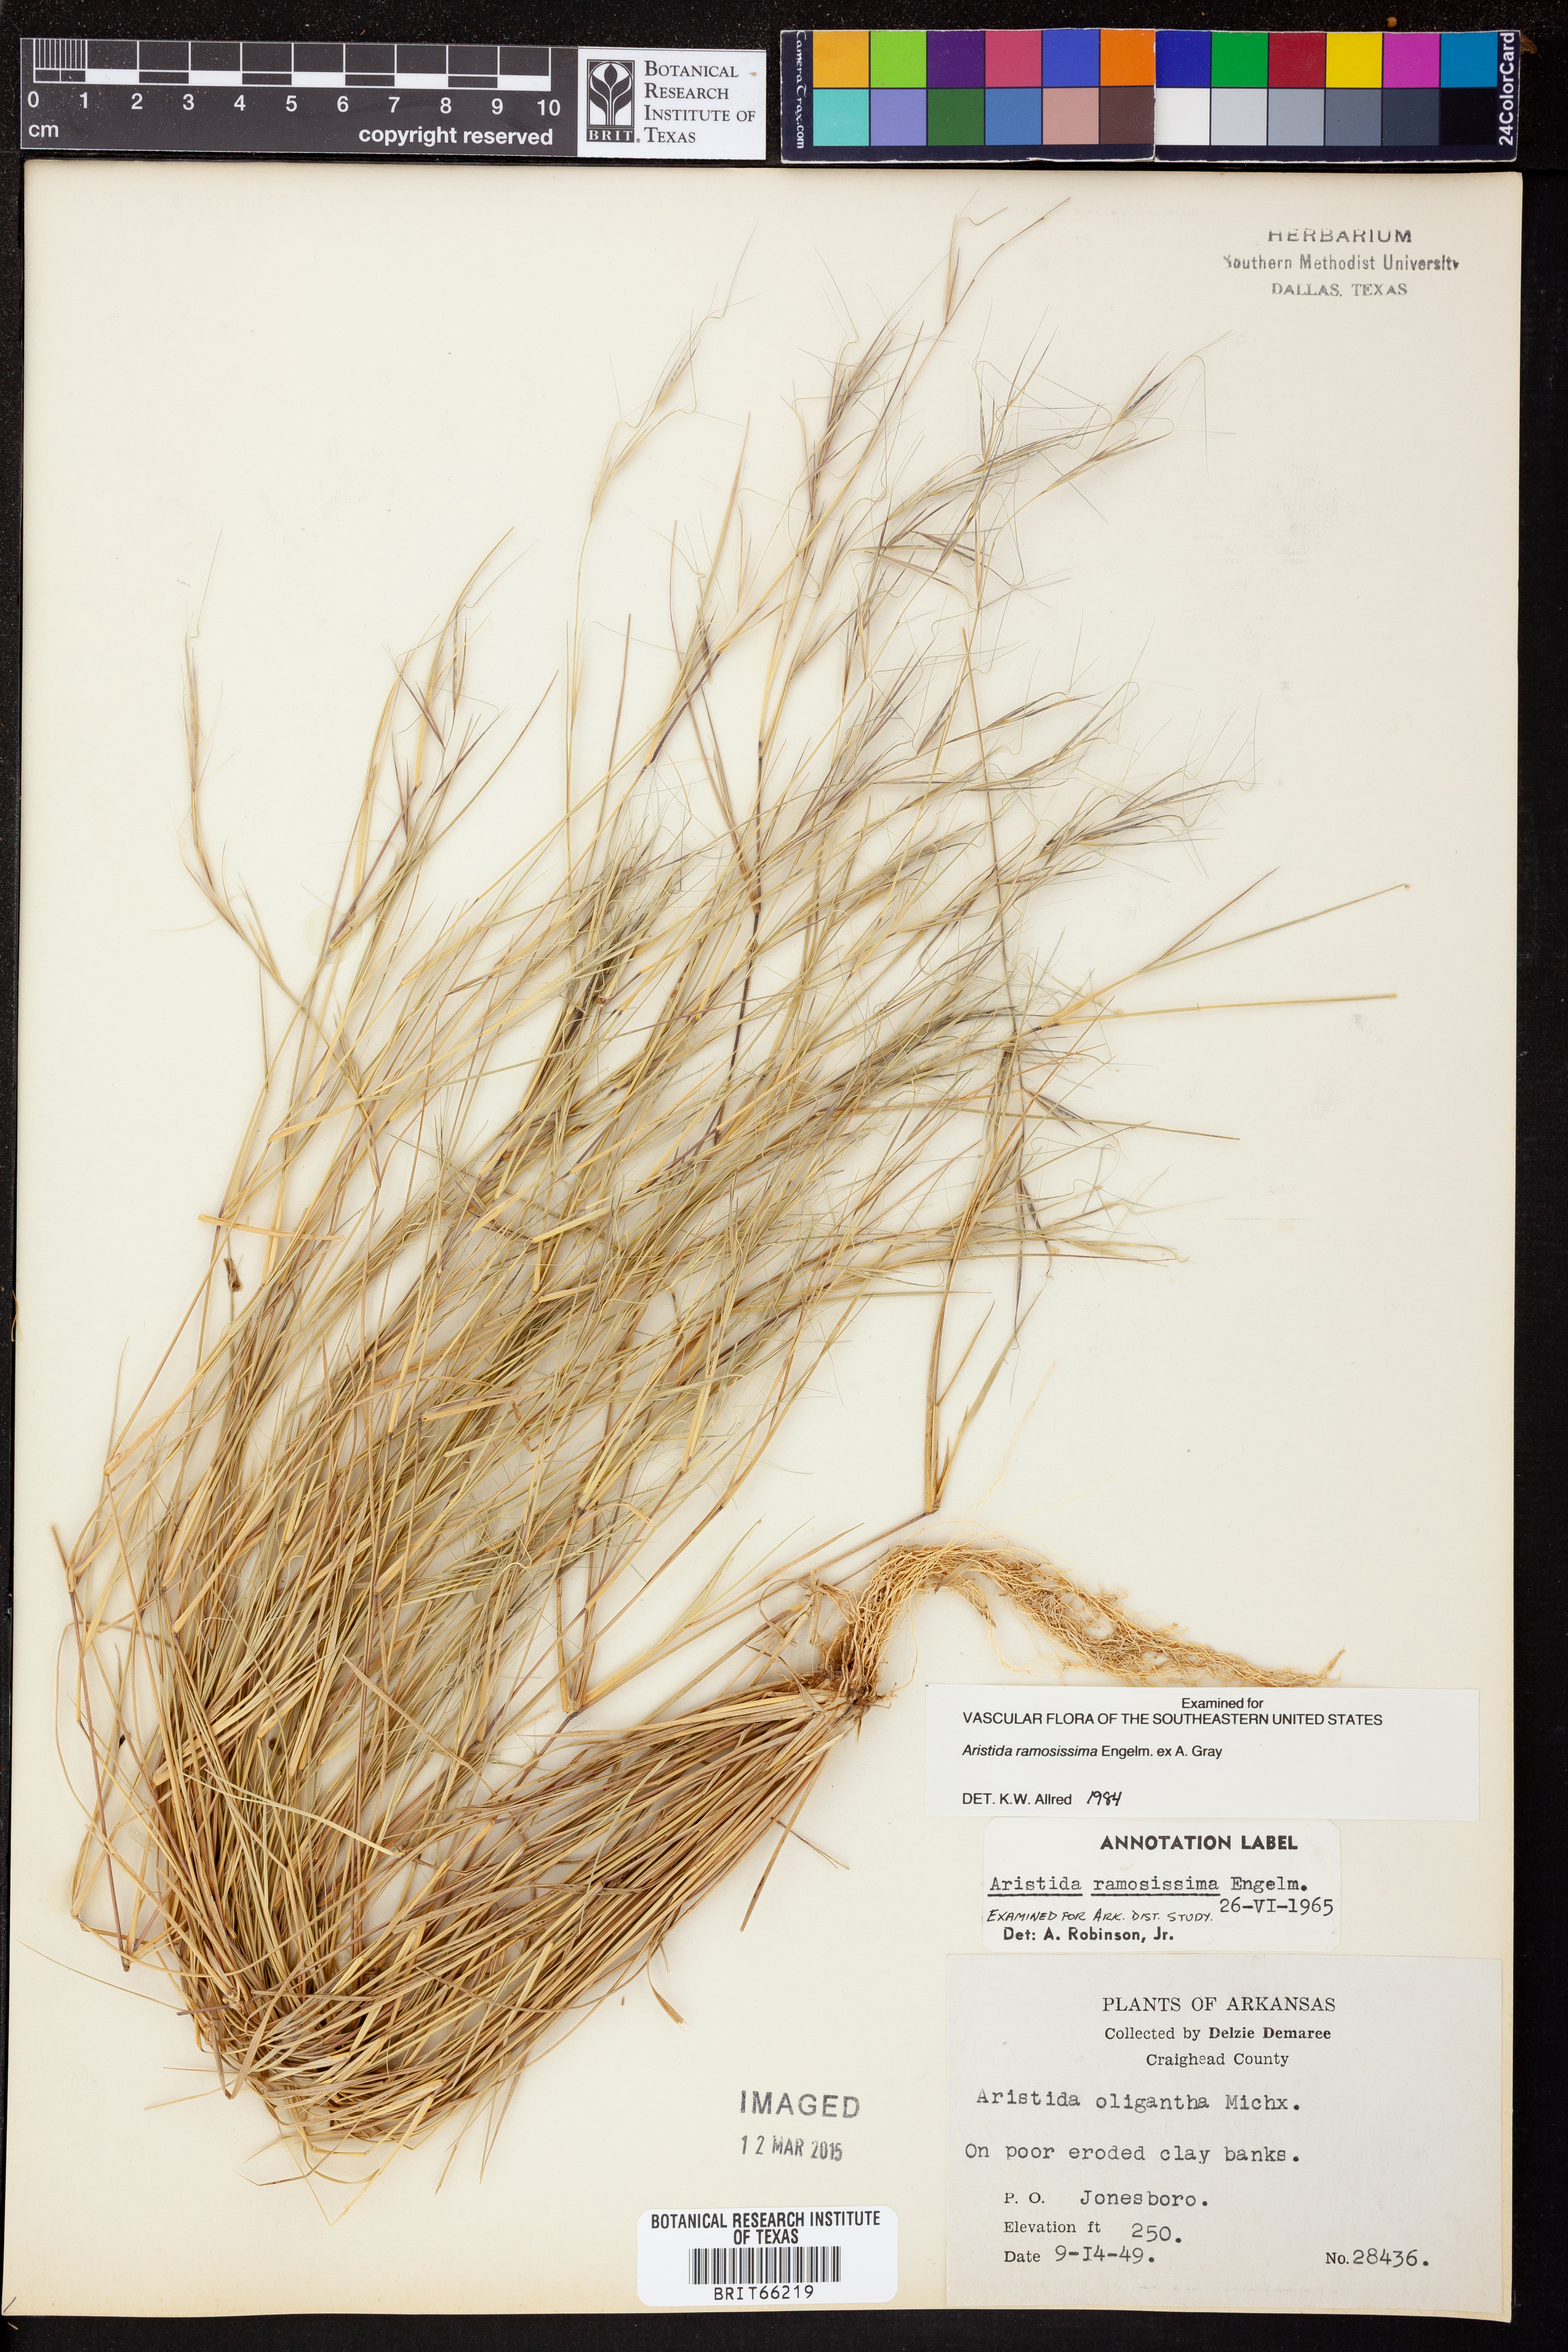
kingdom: Plantae
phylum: Tracheophyta
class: Liliopsida
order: Poales
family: Poaceae
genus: Aristida
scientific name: Aristida ramosissima
